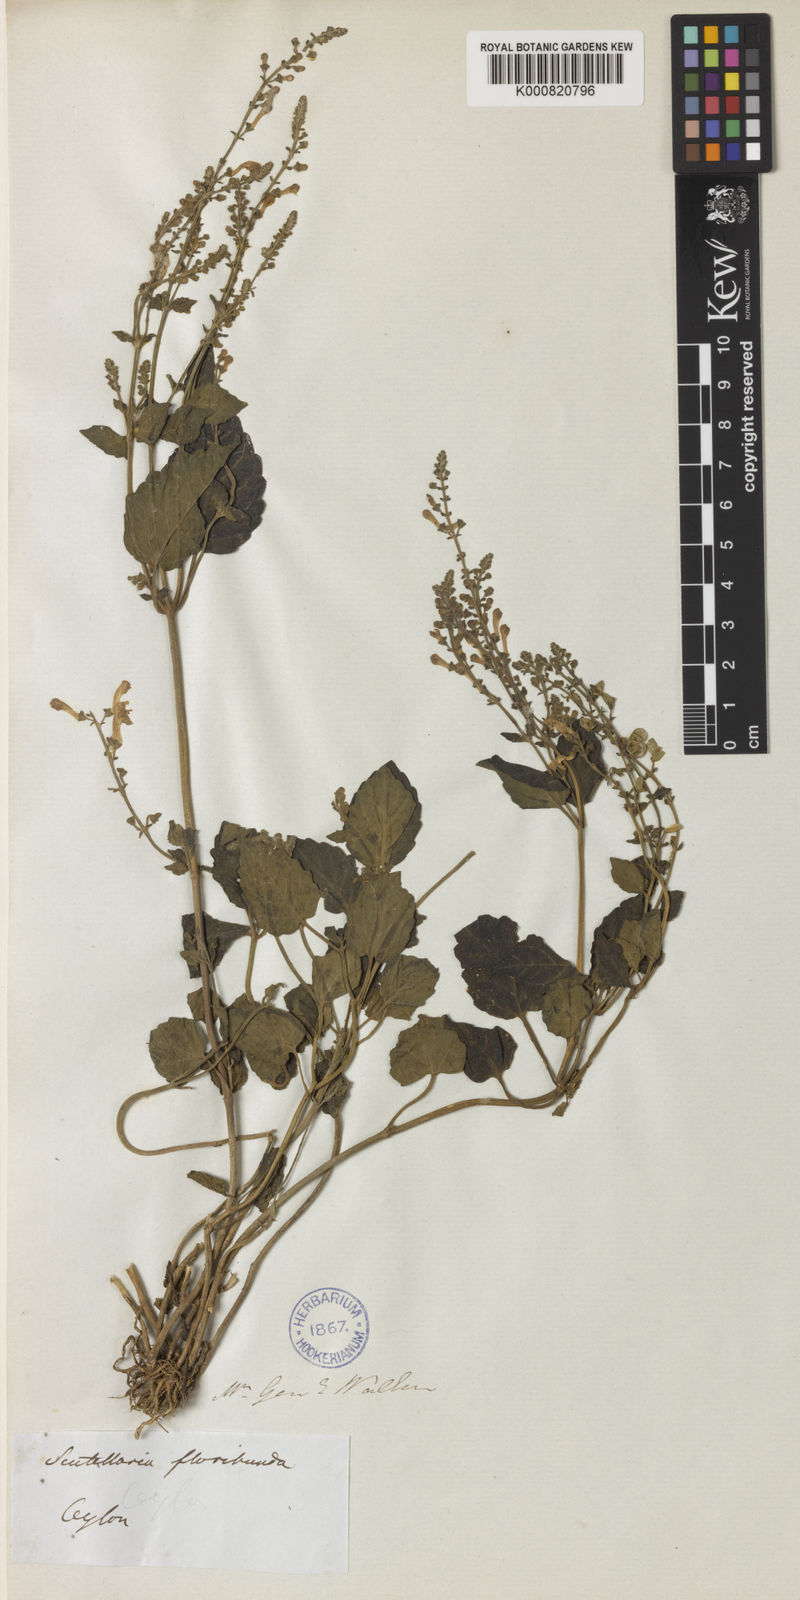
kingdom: Plantae
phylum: Tracheophyta
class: Magnoliopsida
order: Lamiales
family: Lamiaceae
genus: Scutellaria
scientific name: Scutellaria violacea
